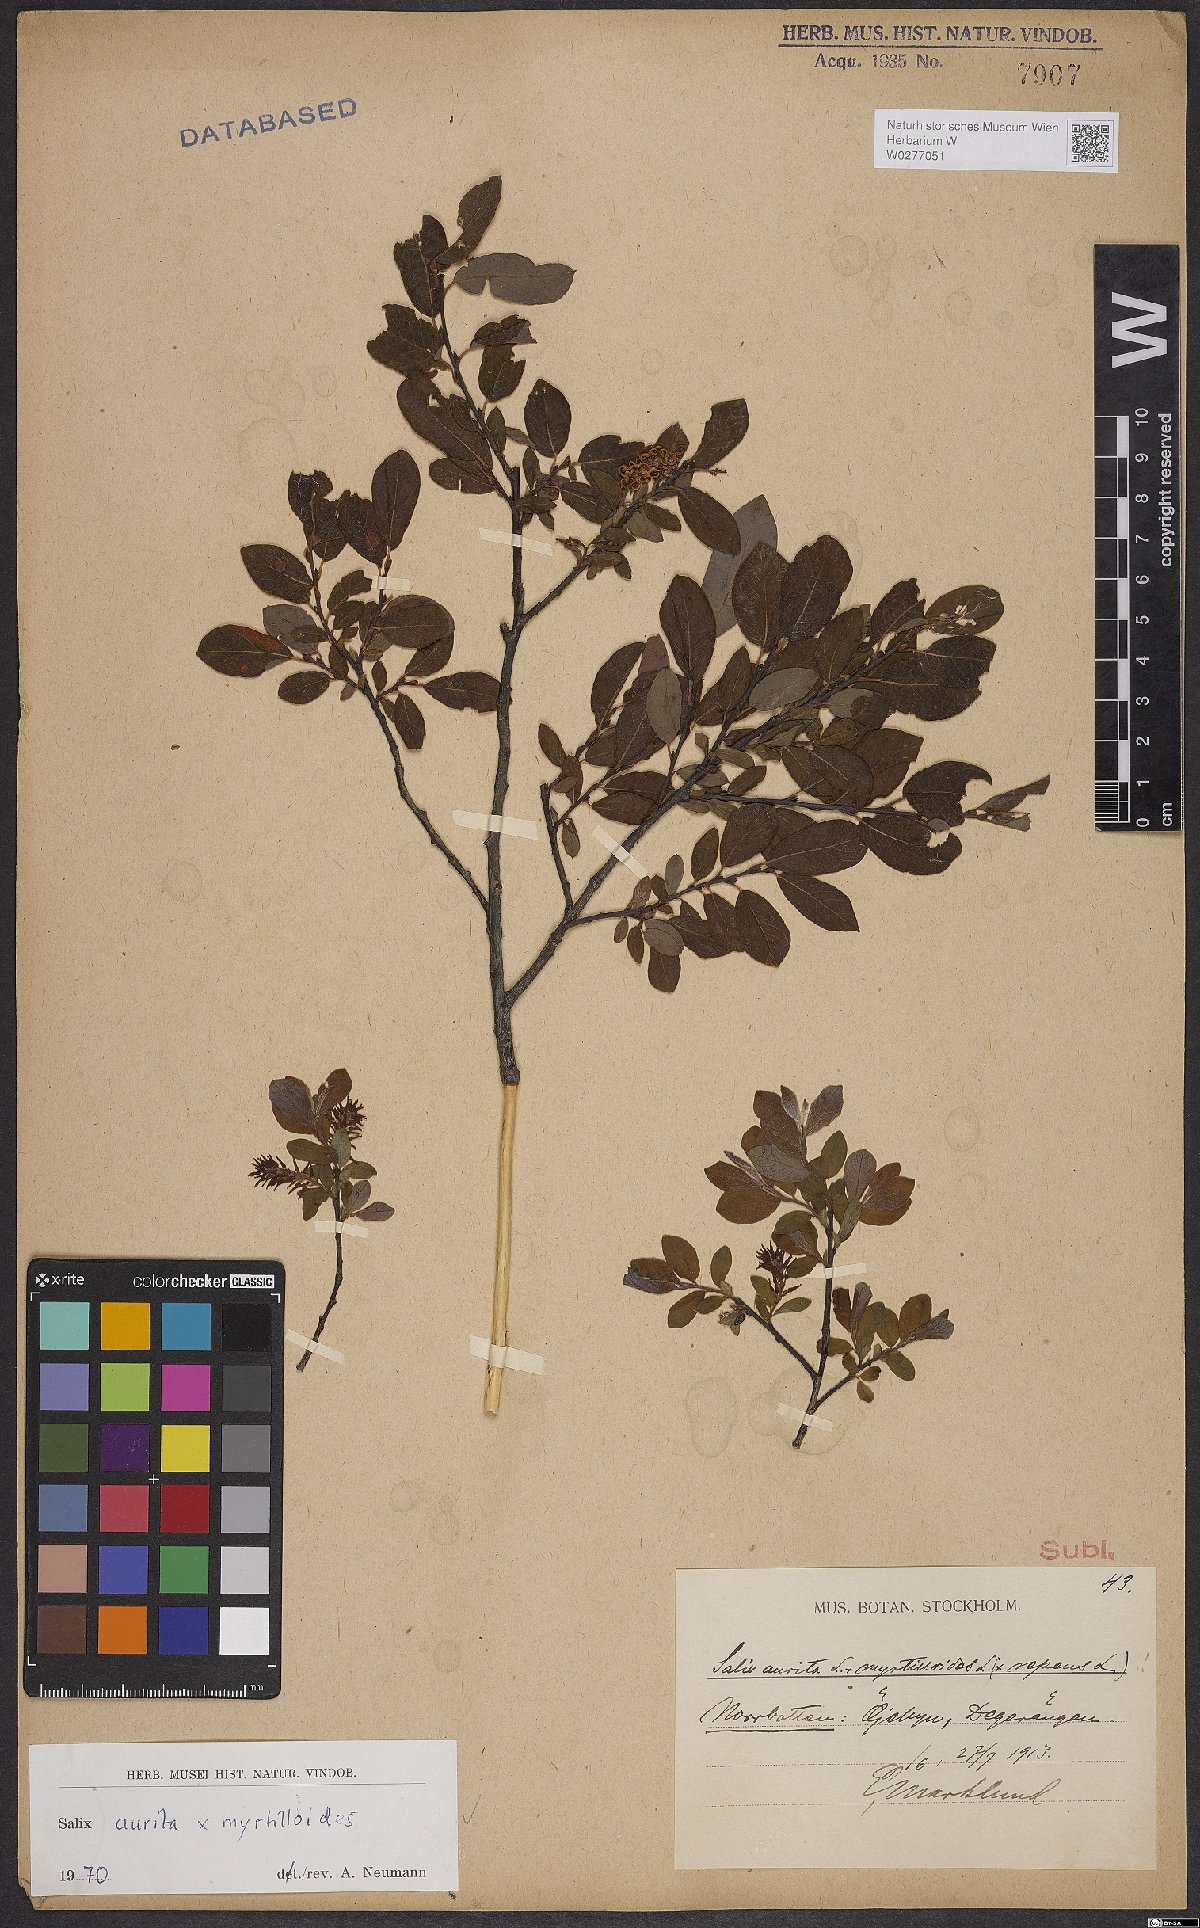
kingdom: Plantae
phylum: Tracheophyta
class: Magnoliopsida
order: Malpighiales
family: Salicaceae
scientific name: Salicaceae
